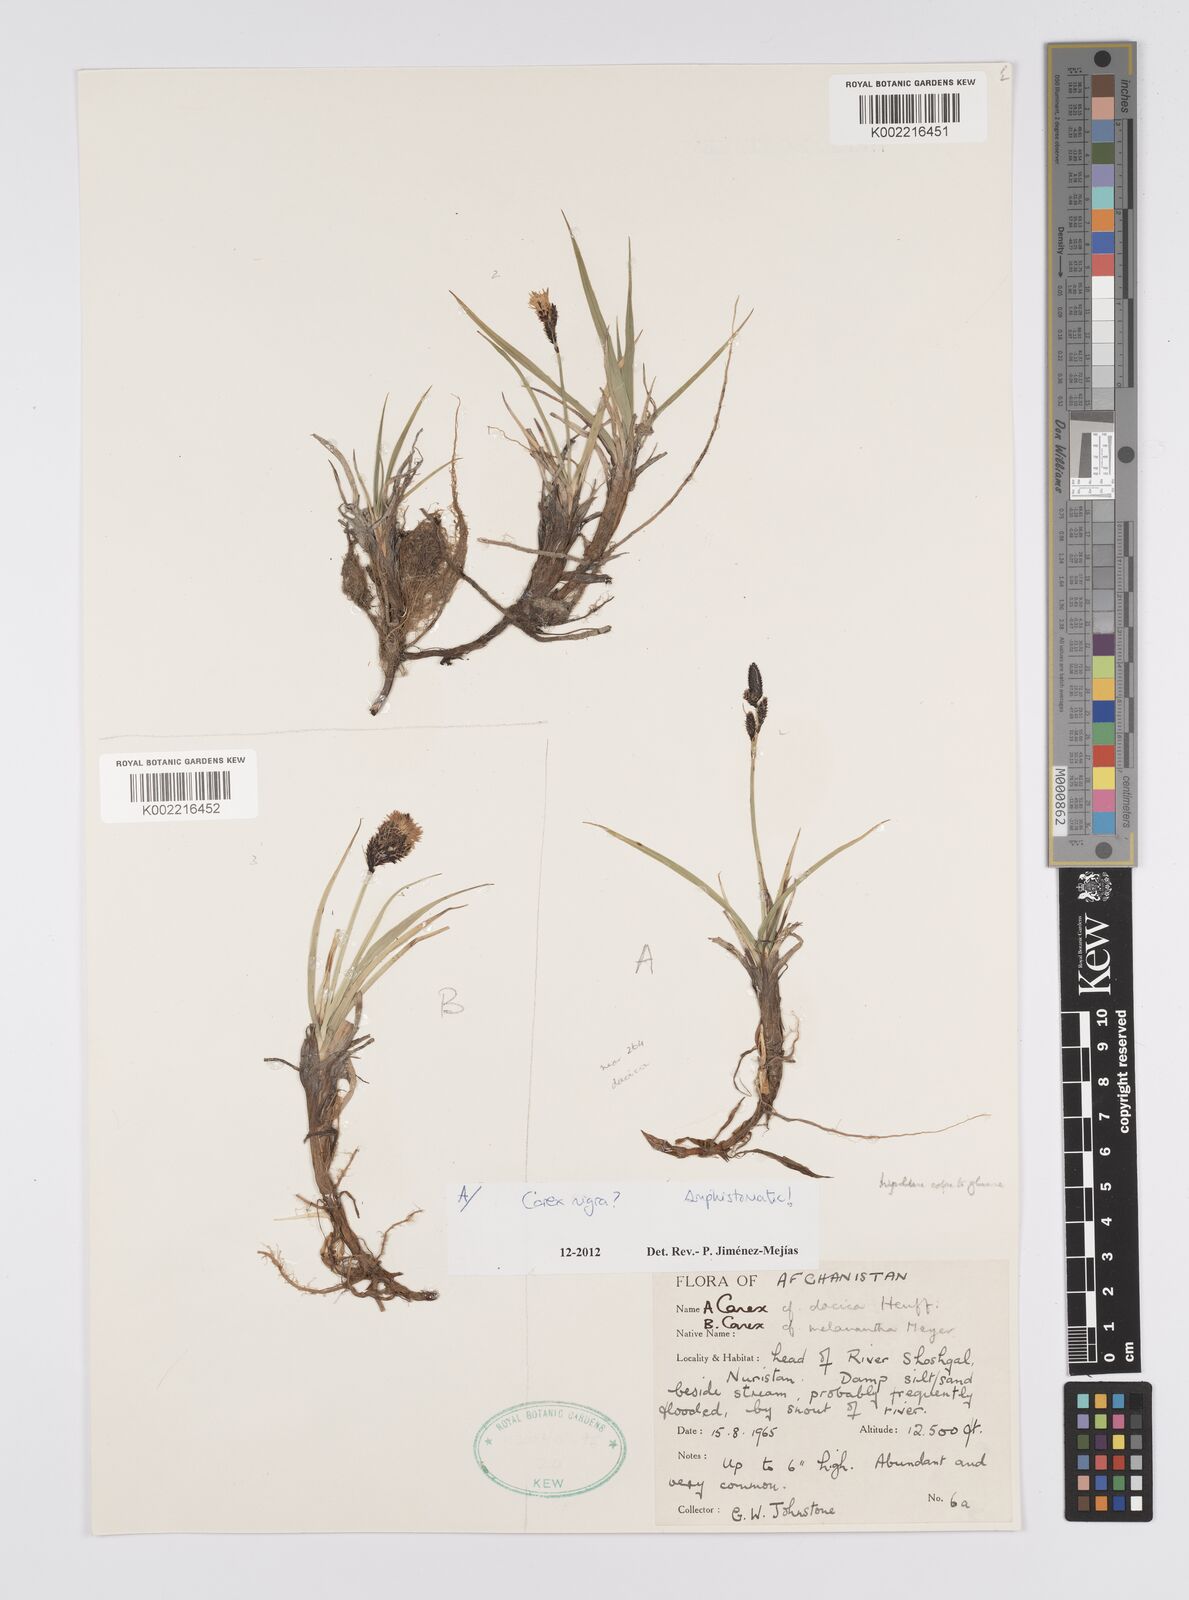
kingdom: Plantae
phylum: Tracheophyta
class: Liliopsida
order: Poales
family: Cyperaceae
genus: Carex
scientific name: Carex nigra
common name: Common sedge
